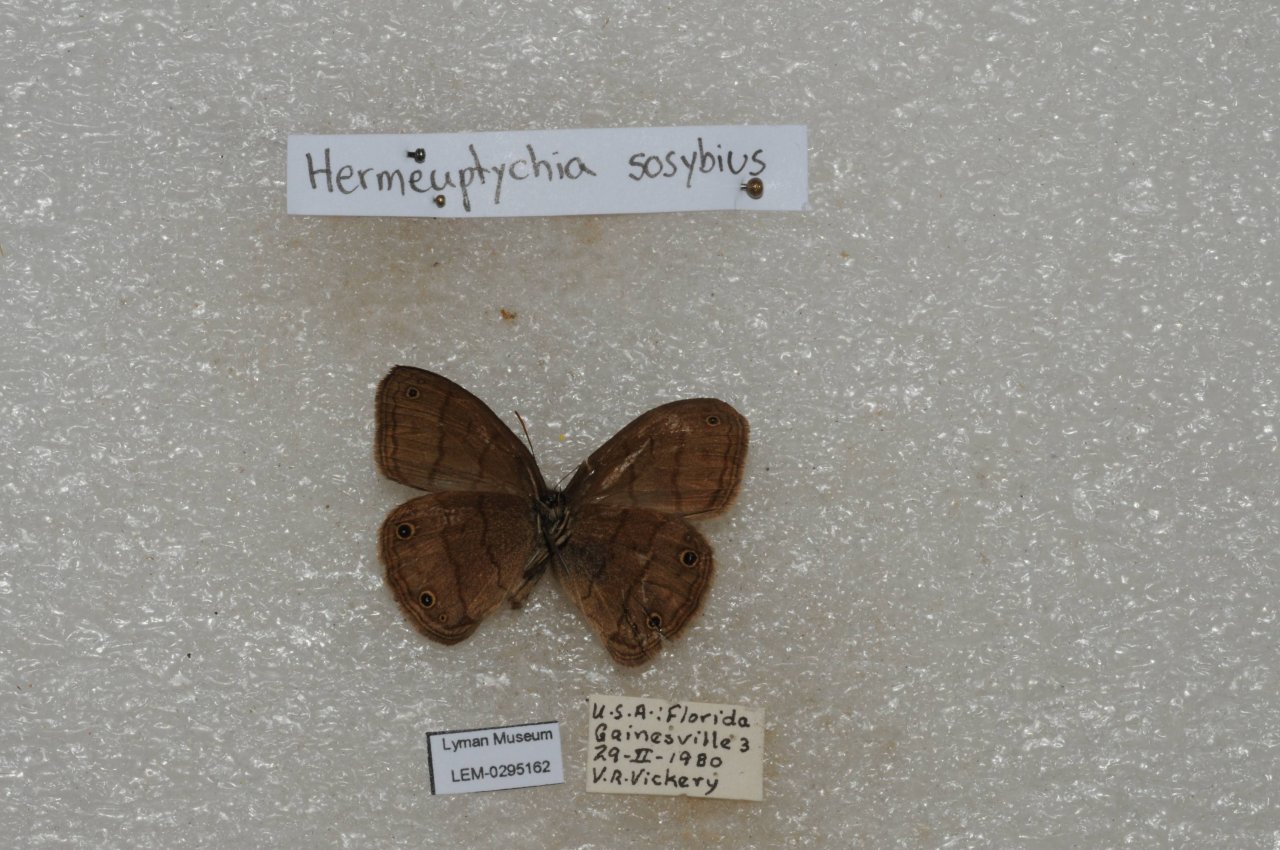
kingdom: Animalia
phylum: Arthropoda
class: Insecta
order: Lepidoptera
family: Nymphalidae
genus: Hermeuptychia
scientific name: Hermeuptychia hermes
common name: Carolina Satyr
